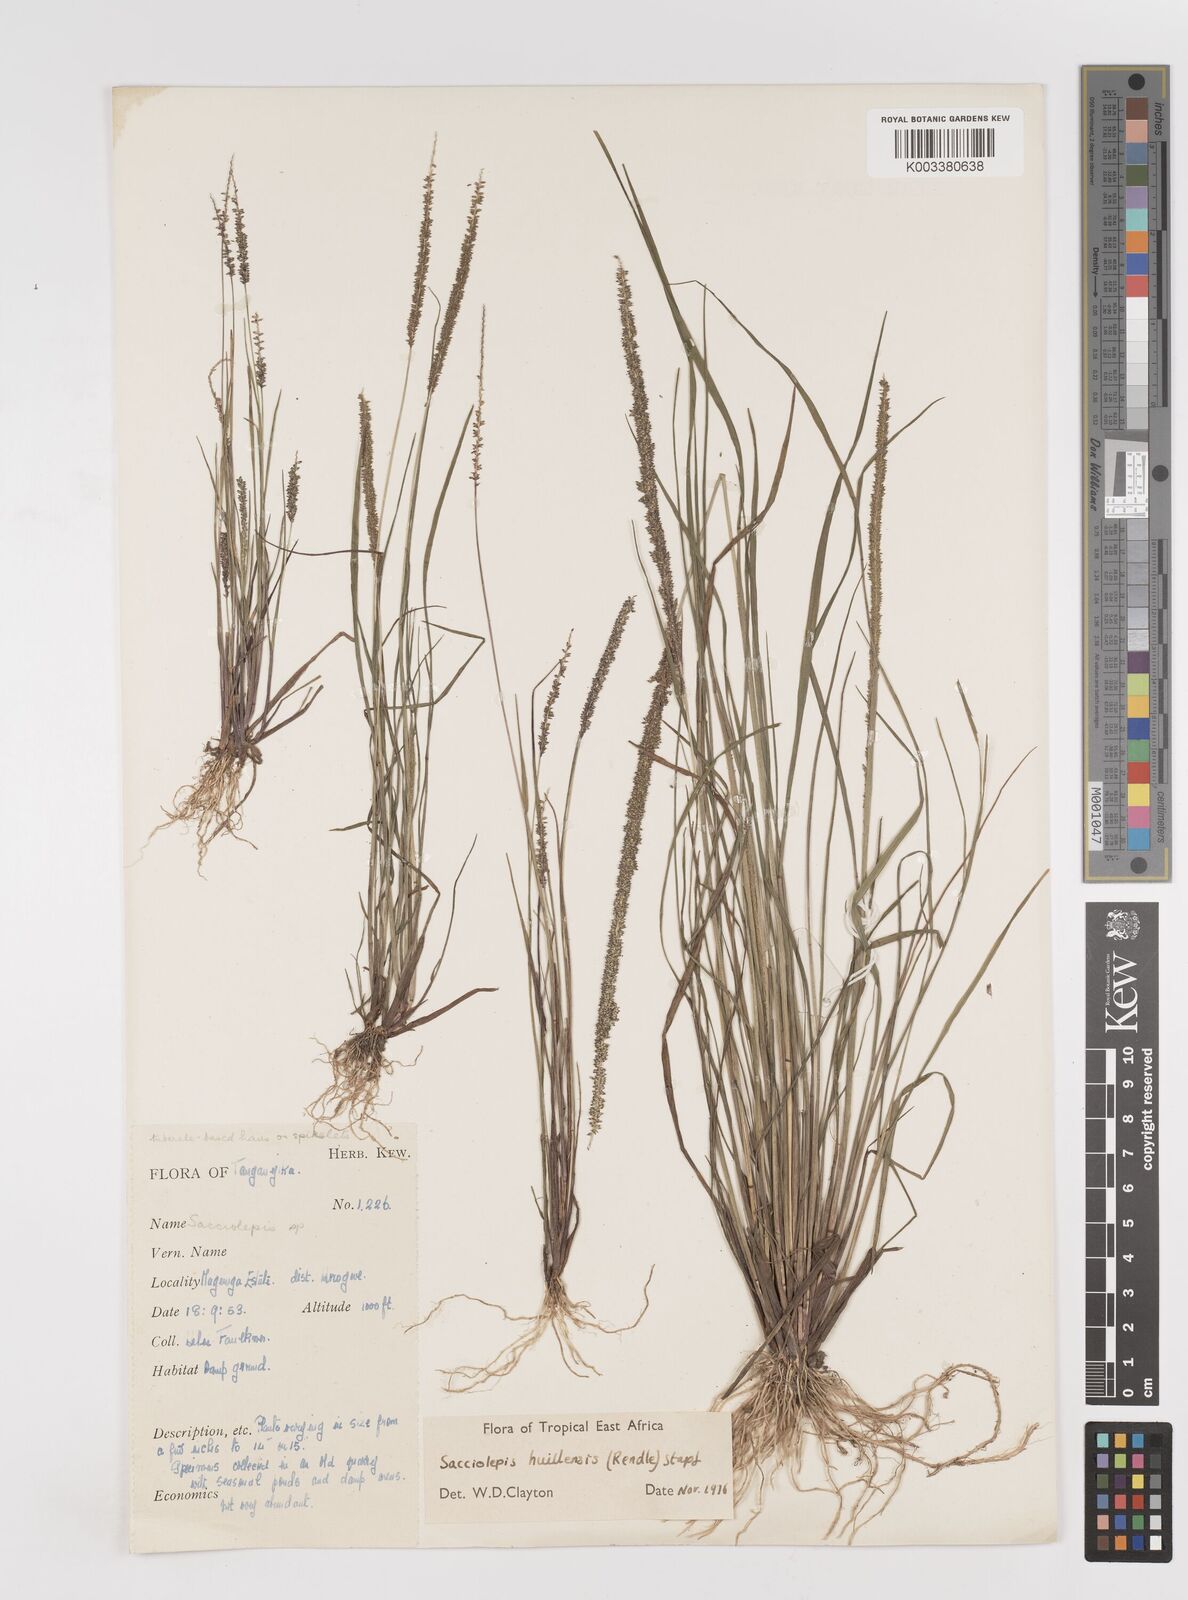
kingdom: Plantae
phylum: Tracheophyta
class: Liliopsida
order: Poales
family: Poaceae
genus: Sacciolepis
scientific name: Sacciolepis myosuroides
